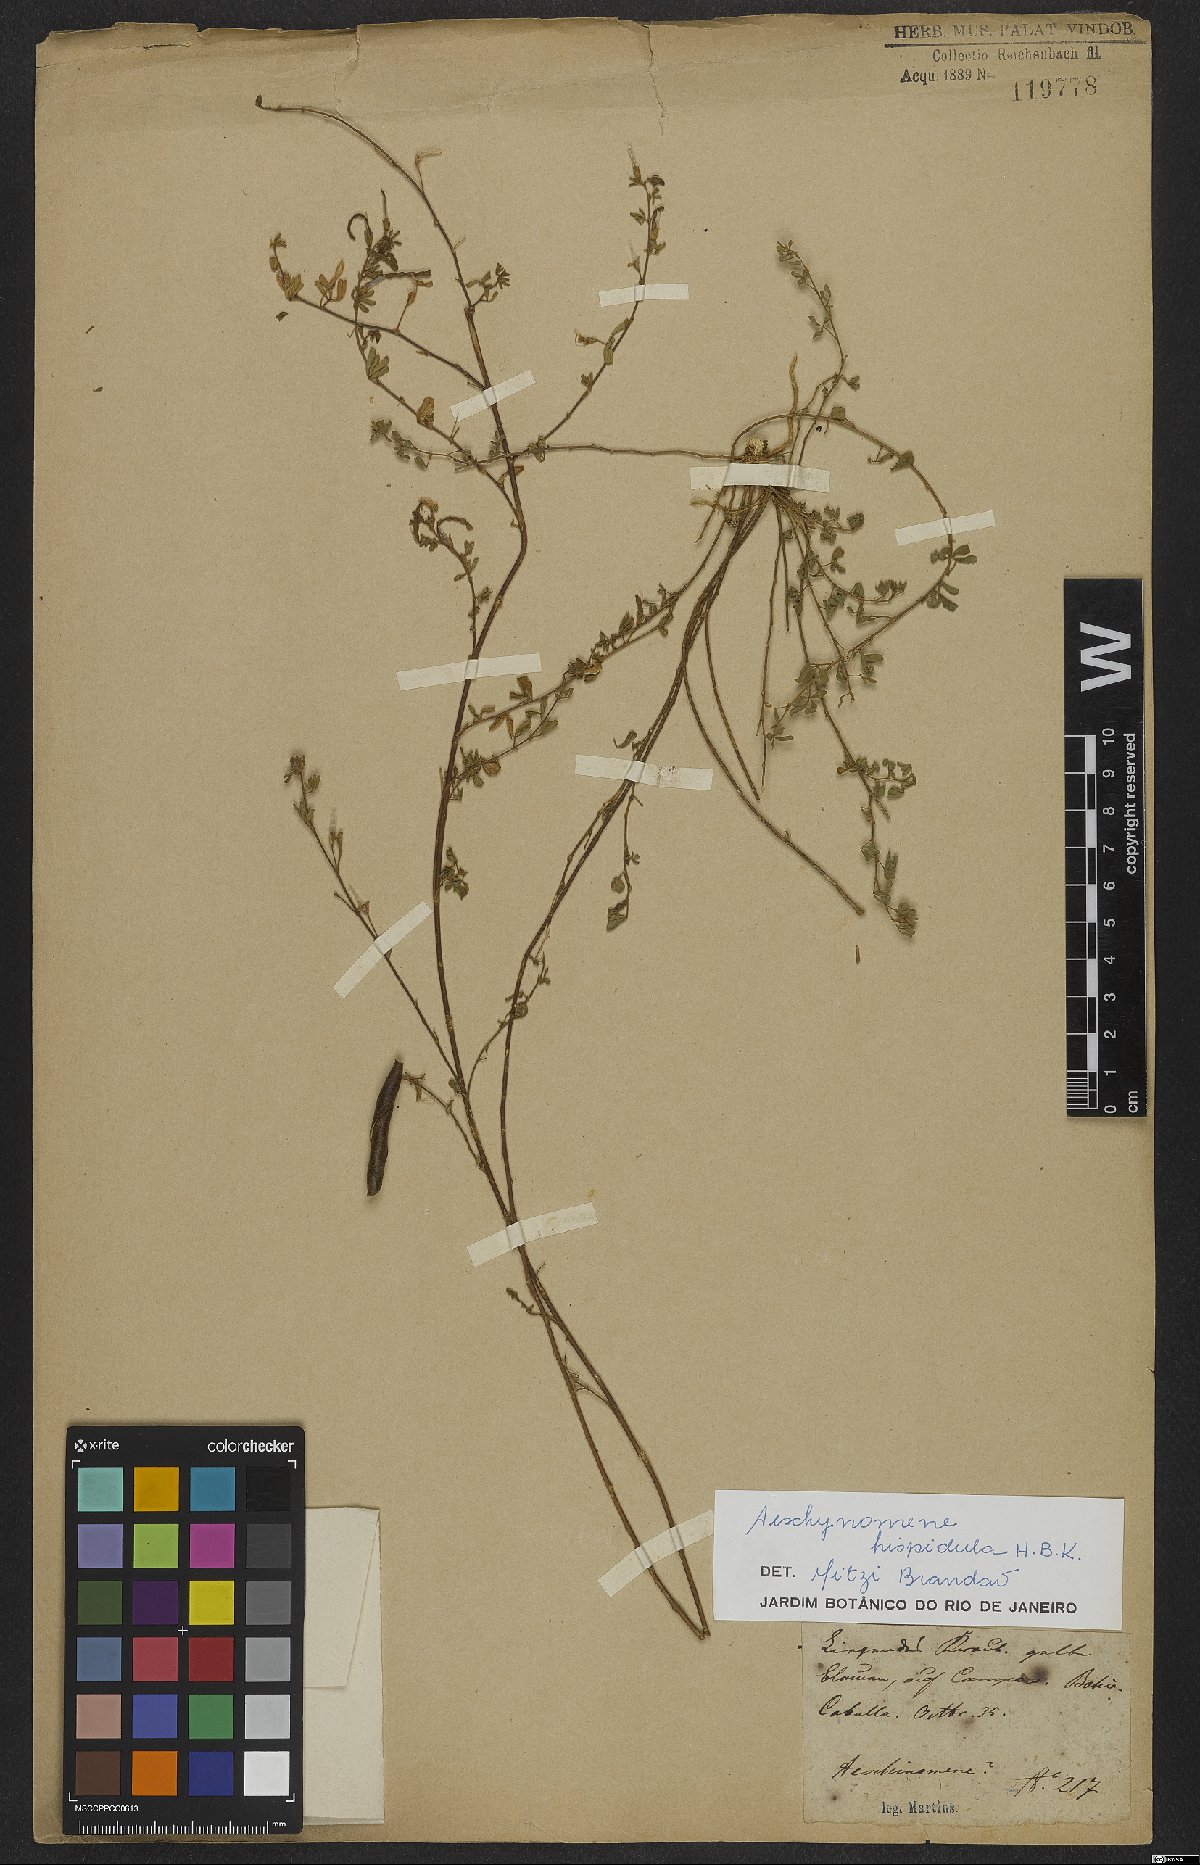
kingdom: Plantae
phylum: Tracheophyta
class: Magnoliopsida
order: Fabales
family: Fabaceae
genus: Aeschynomene
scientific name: Aeschynomene rudis
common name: Rough joint-vetch
